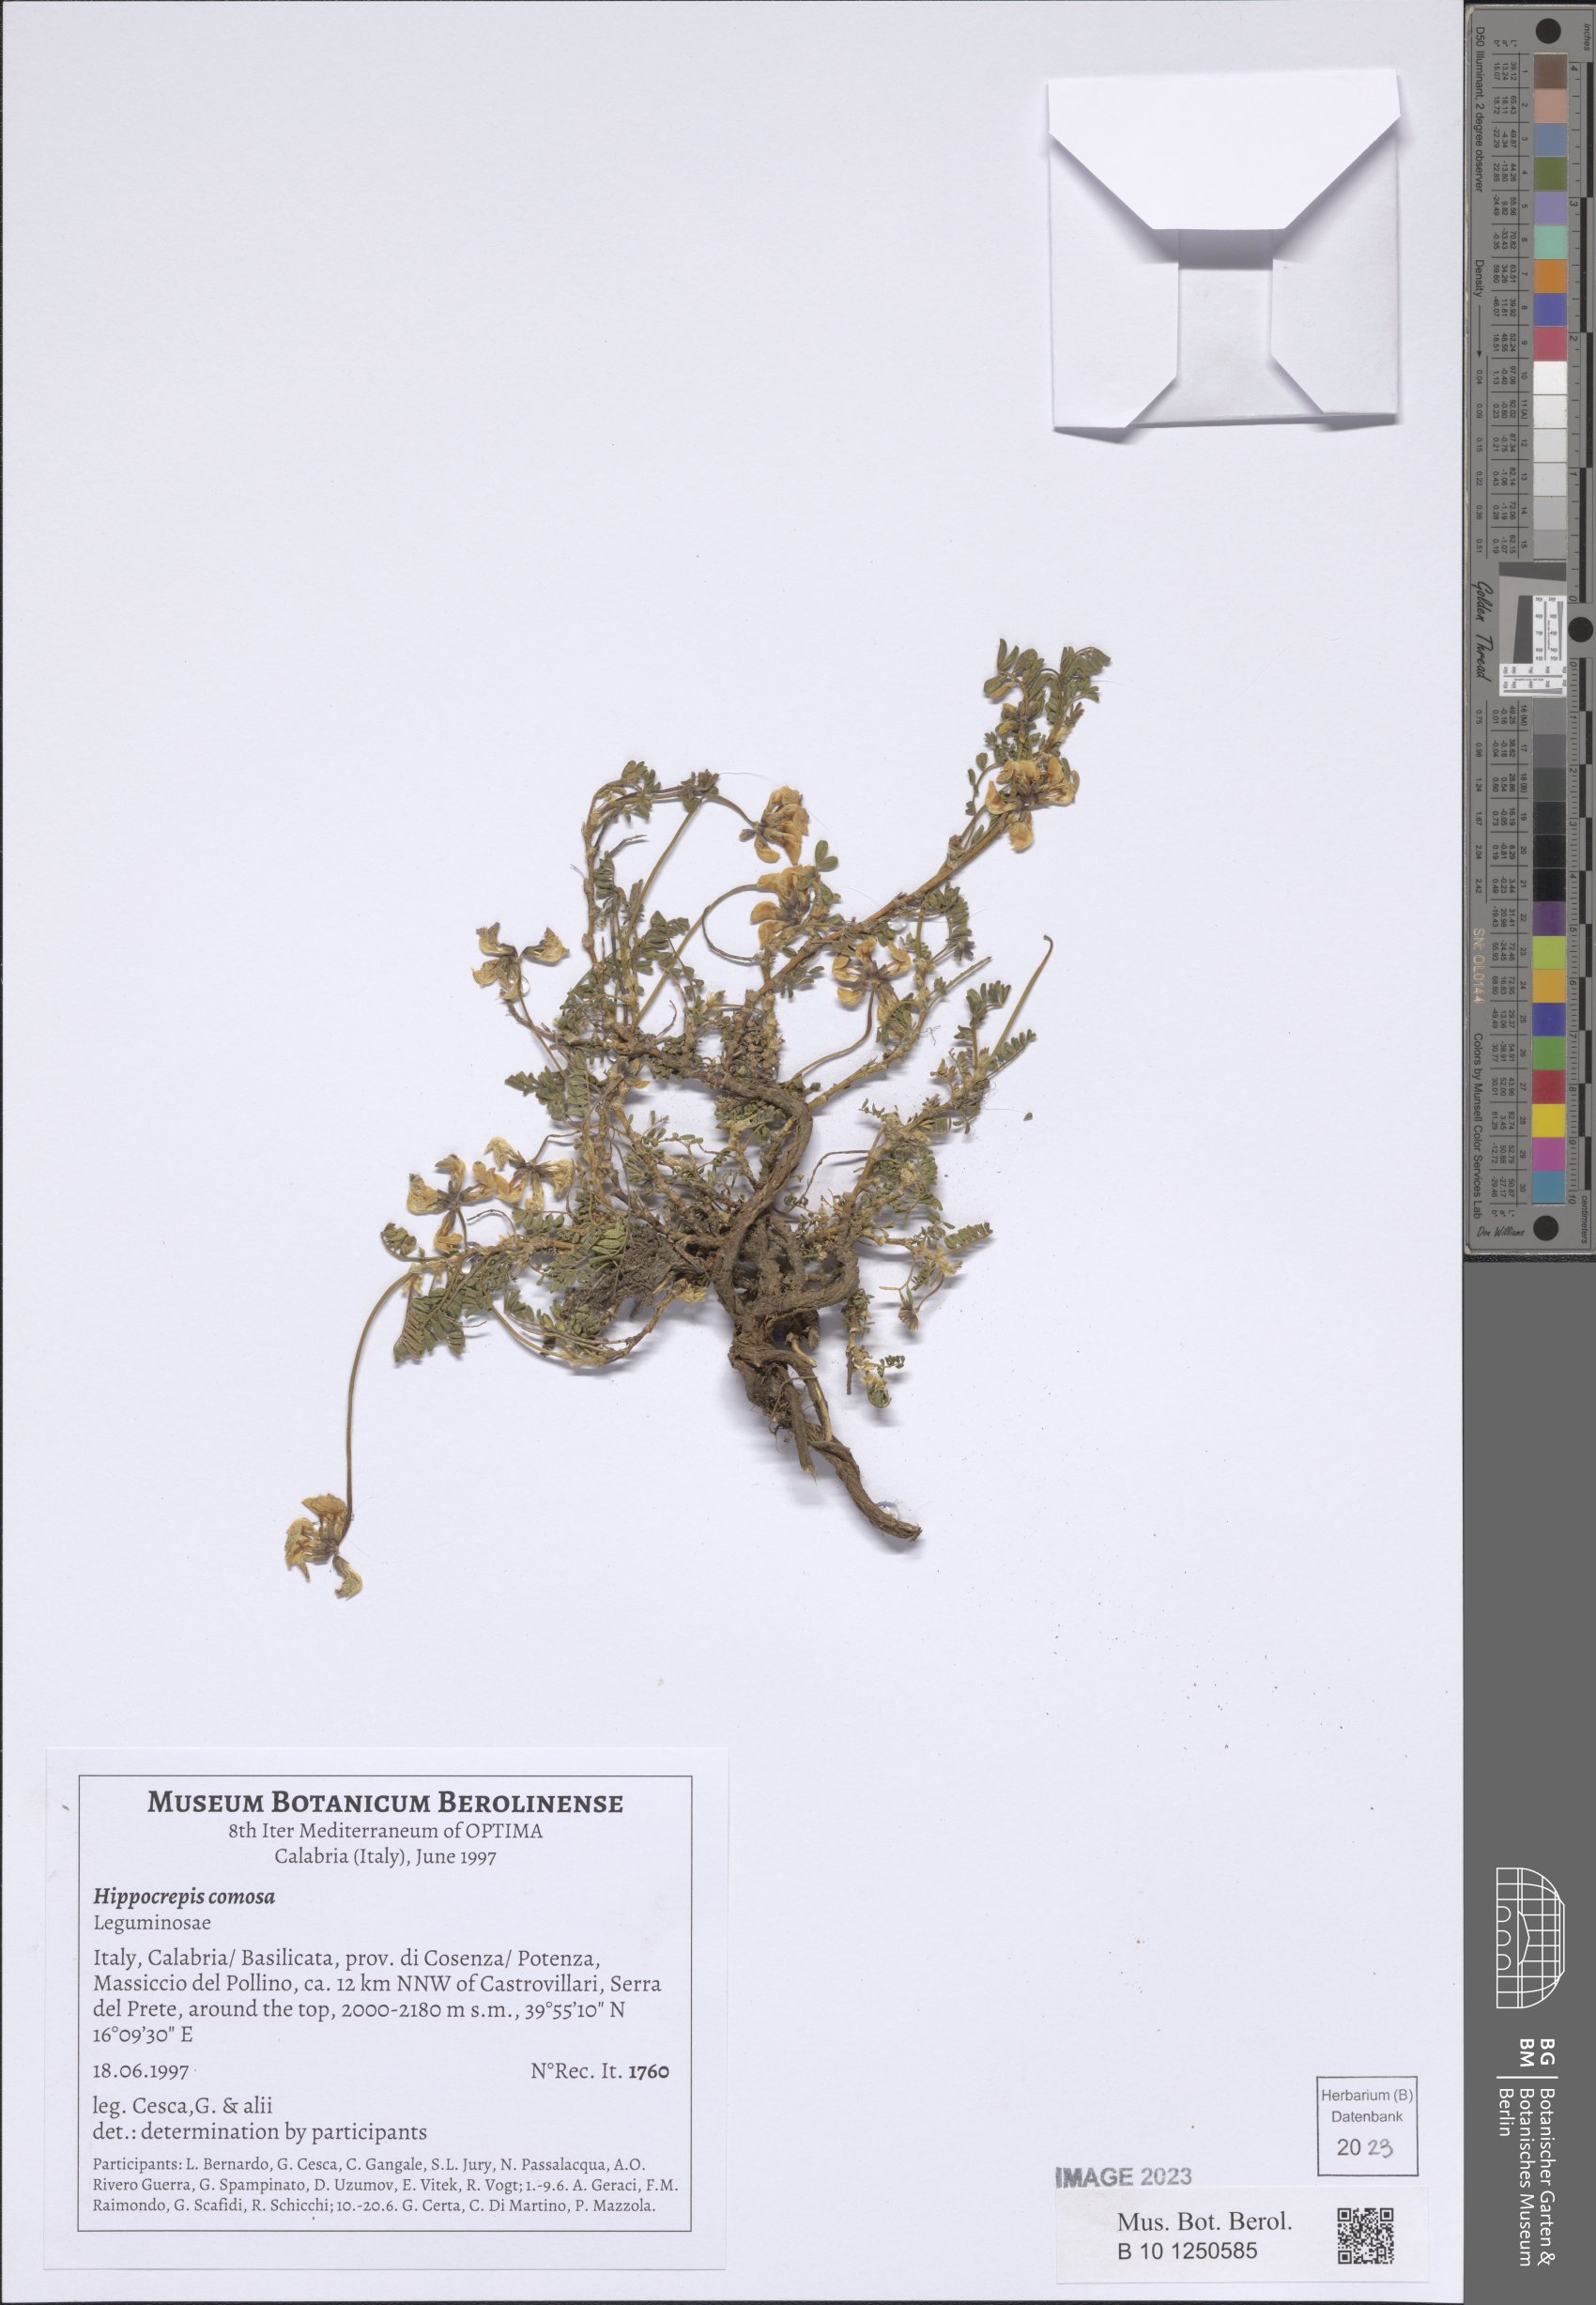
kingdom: Plantae
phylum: Tracheophyta
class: Magnoliopsida
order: Fabales
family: Fabaceae
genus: Hippocrepis
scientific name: Hippocrepis comosa
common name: Horseshoe vetch
